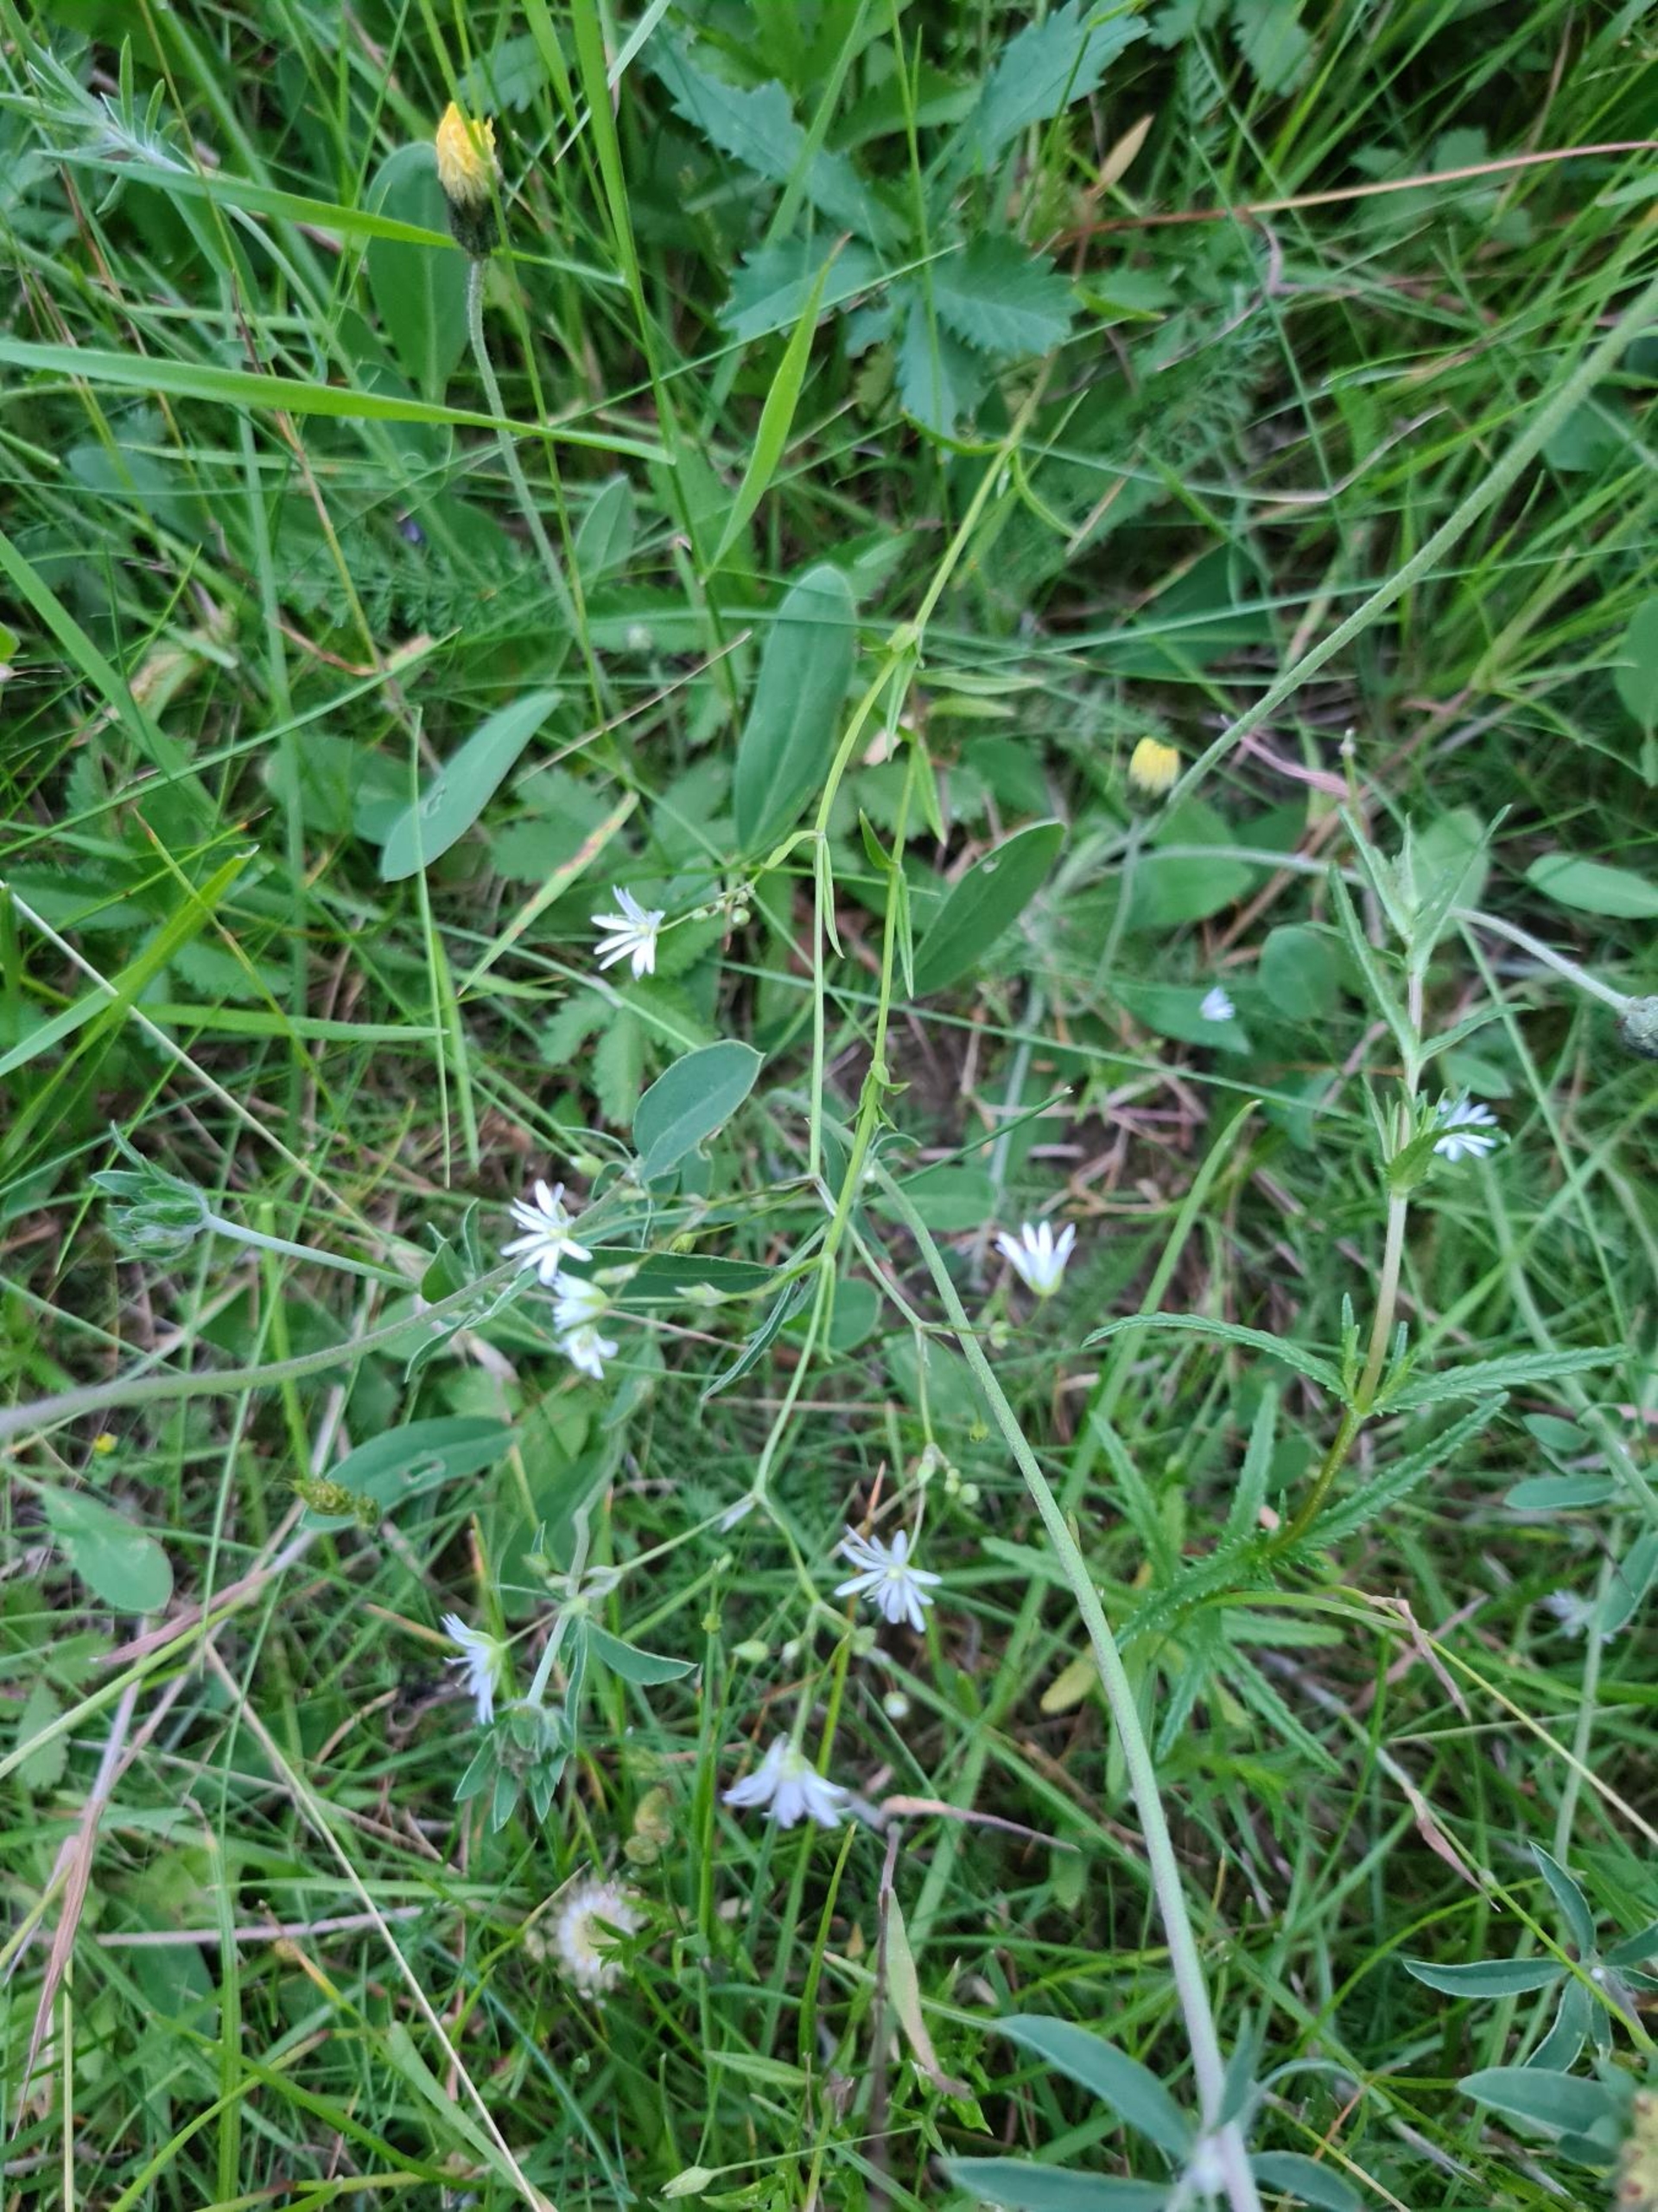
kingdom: Plantae
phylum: Tracheophyta
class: Magnoliopsida
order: Caryophyllales
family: Caryophyllaceae
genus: Stellaria
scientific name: Stellaria graminea
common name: Græsbladet fladstjerne
